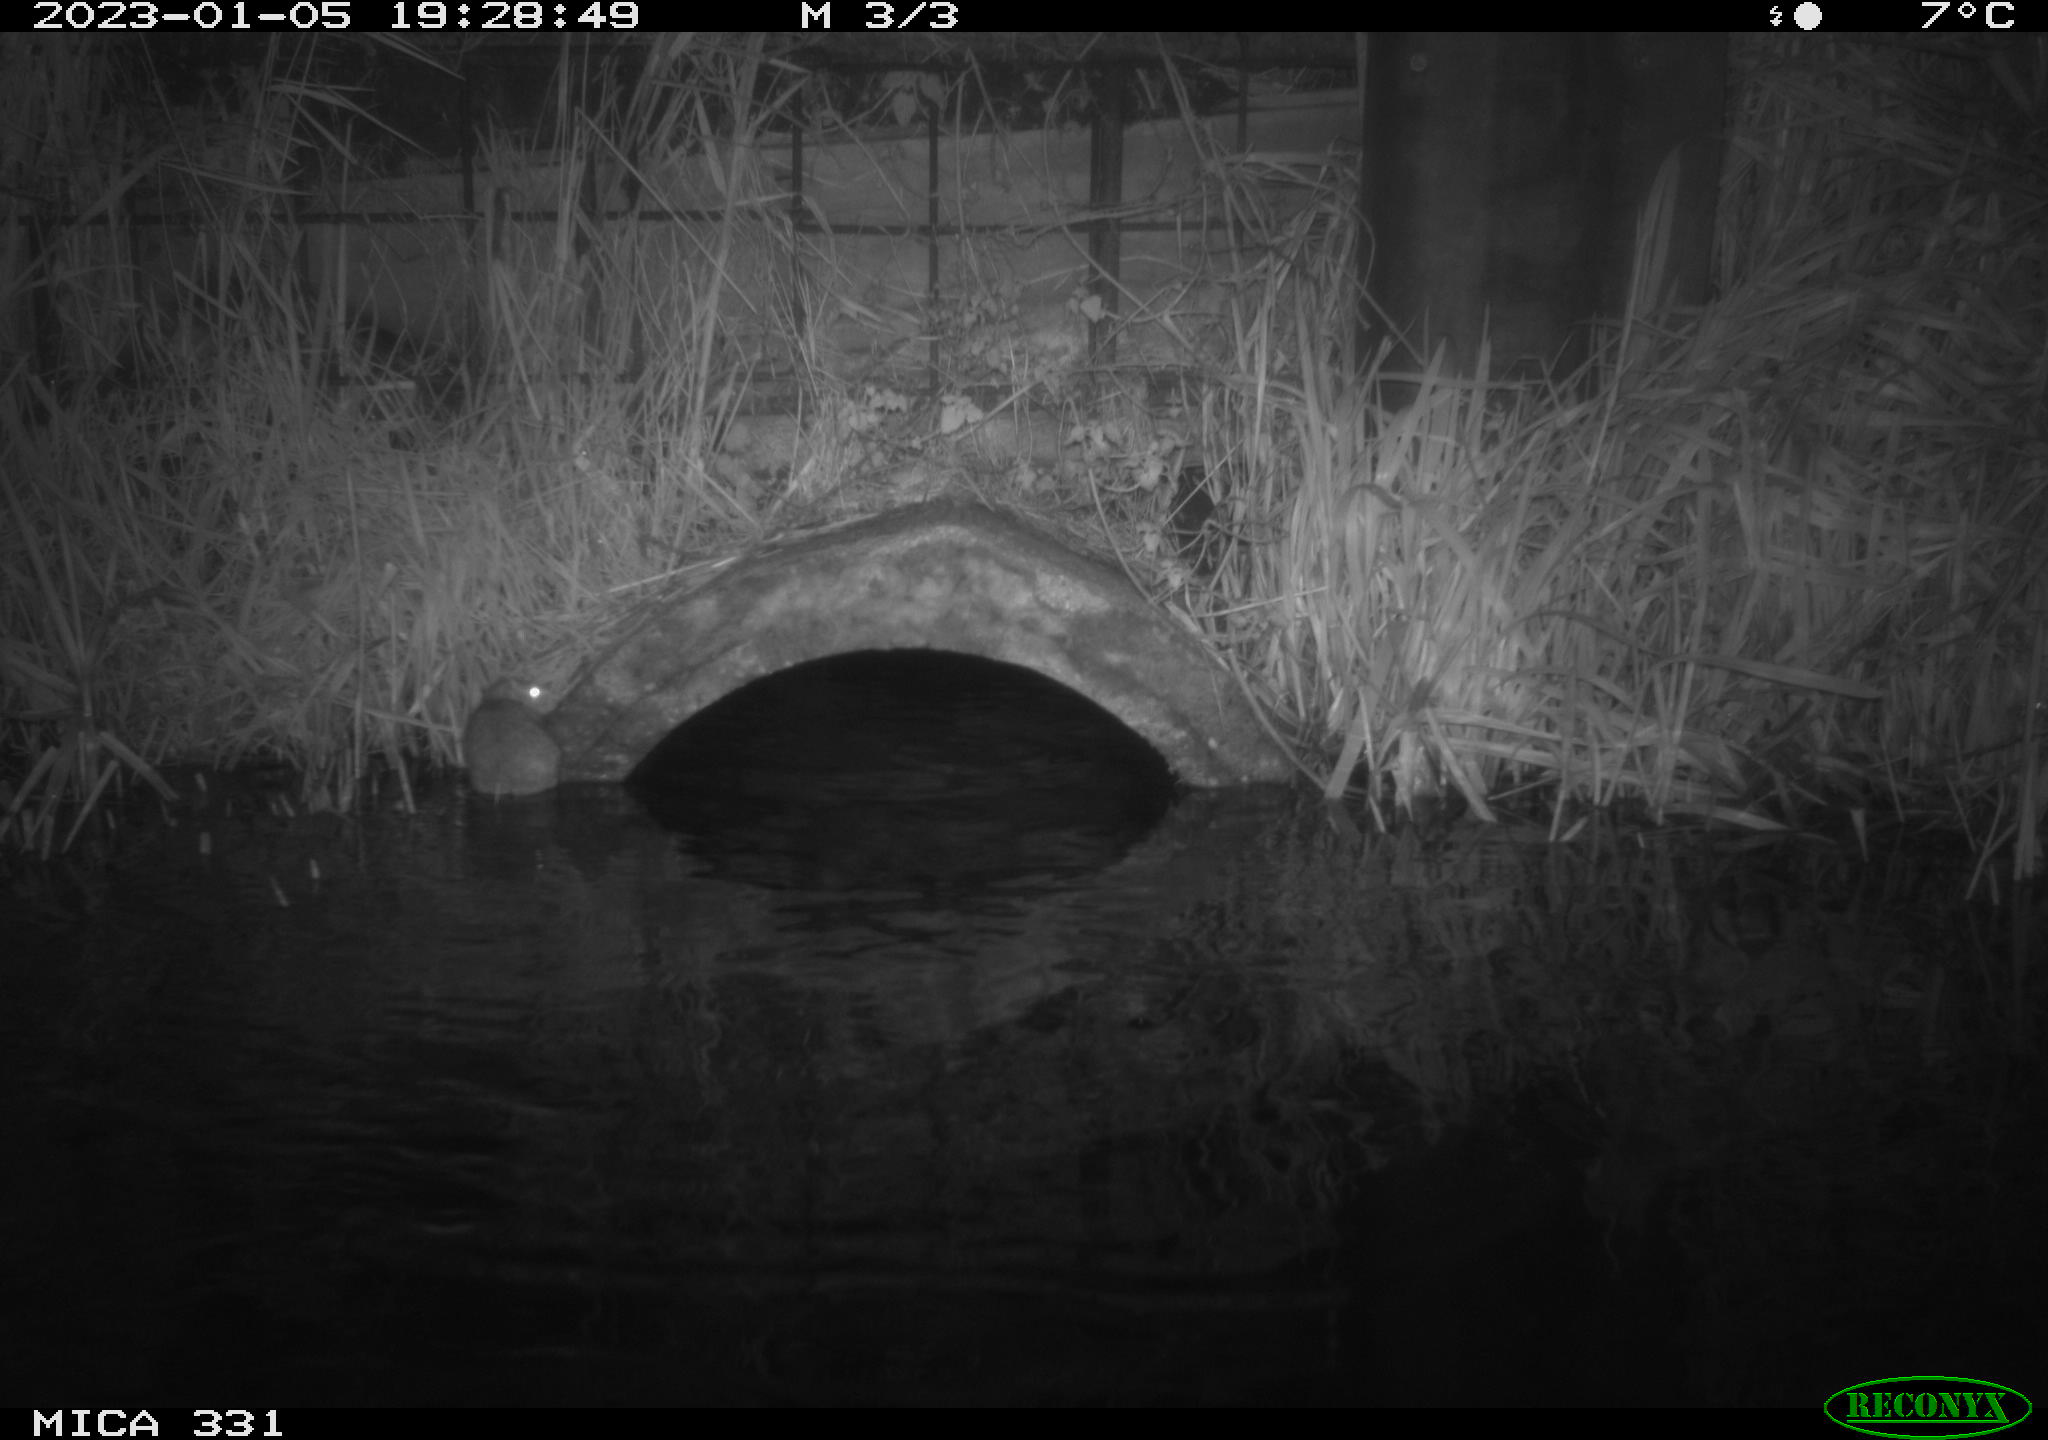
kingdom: Animalia
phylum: Chordata
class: Mammalia
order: Rodentia
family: Muridae
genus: Rattus
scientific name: Rattus norvegicus
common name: Brown rat
